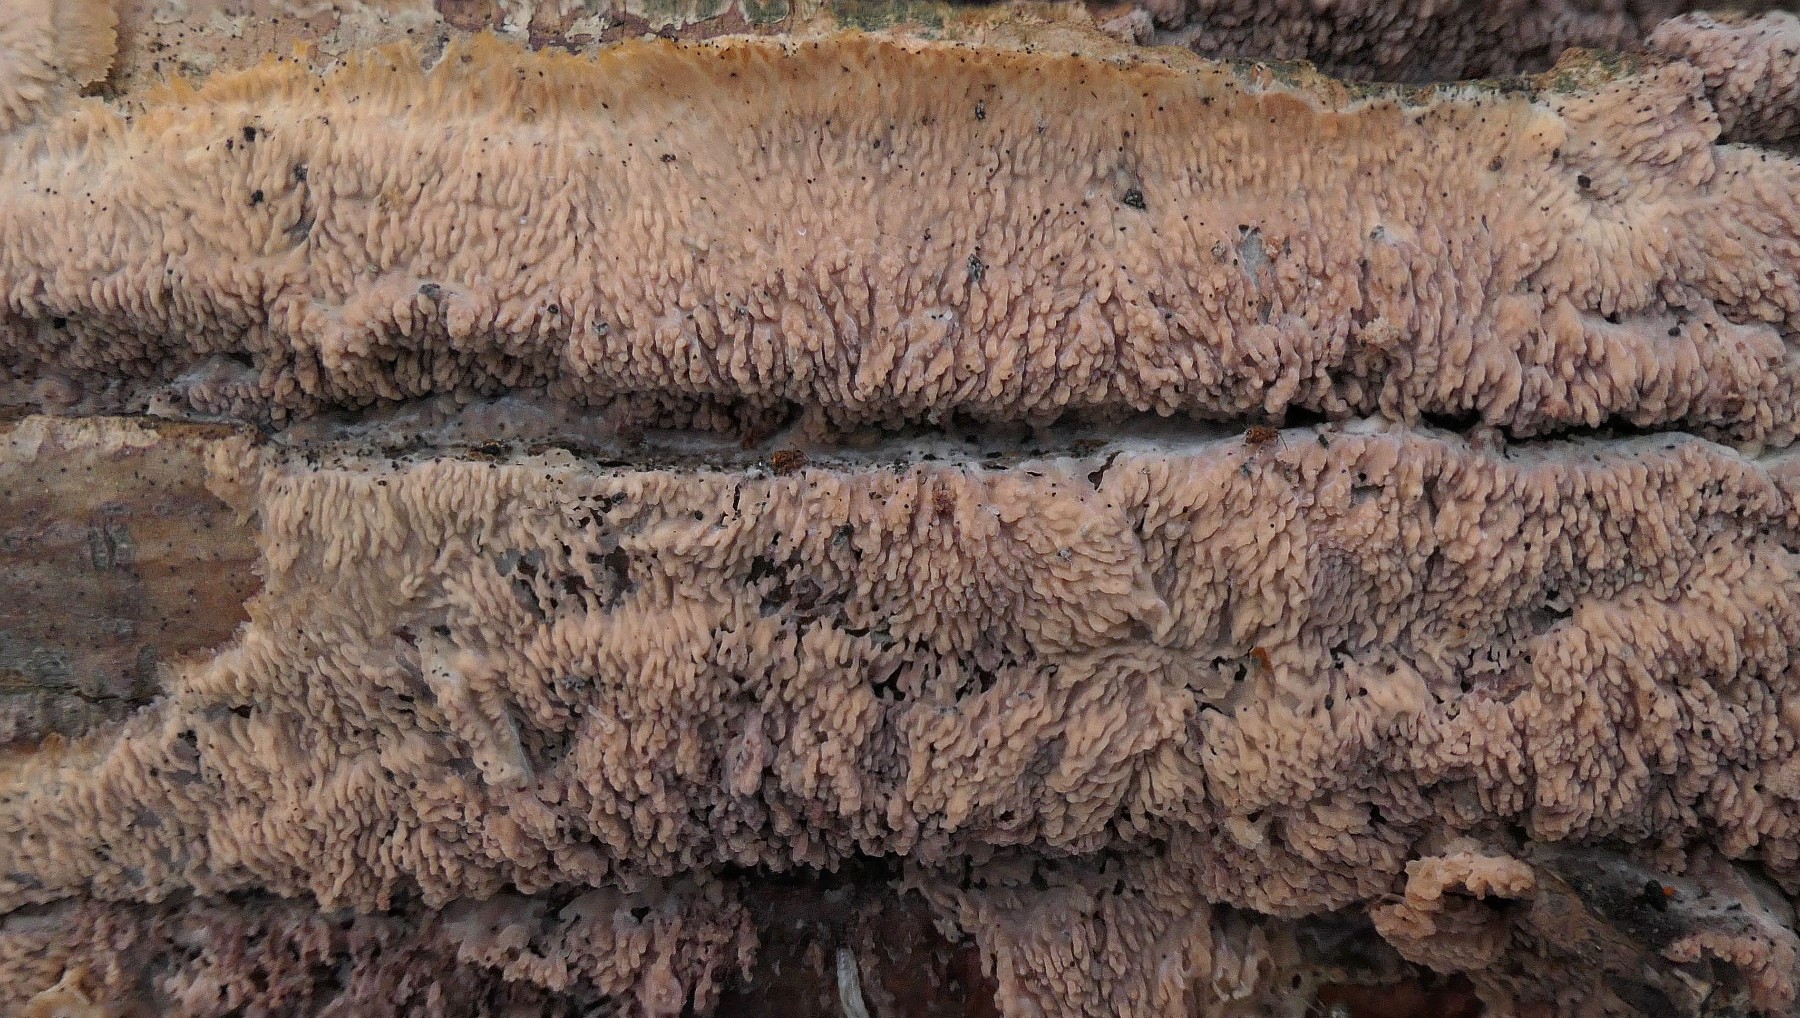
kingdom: Fungi
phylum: Basidiomycota
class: Agaricomycetes
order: Polyporales
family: Meruliaceae
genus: Phlebia
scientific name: Phlebia radiata
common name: stråle-åresvamp
